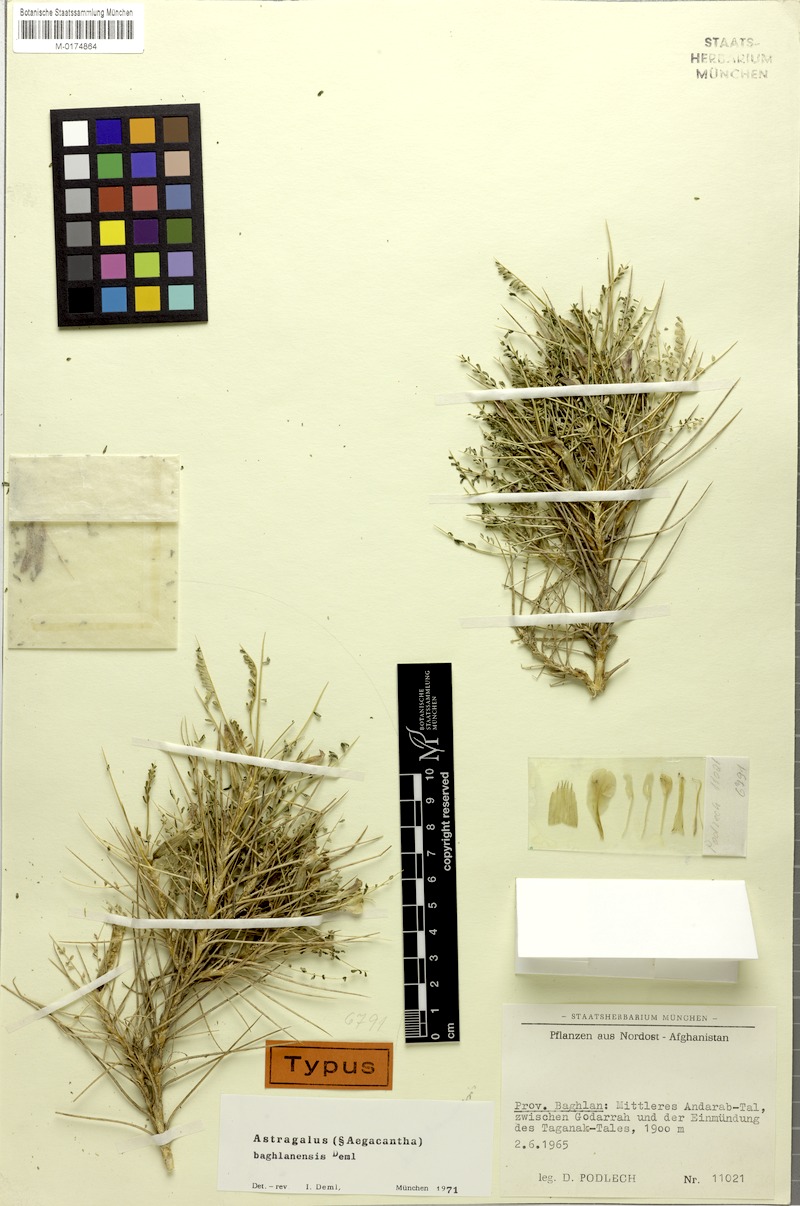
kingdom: Plantae
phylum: Tracheophyta
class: Magnoliopsida
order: Fabales
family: Fabaceae
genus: Astragalus
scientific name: Astragalus baghlanensis
